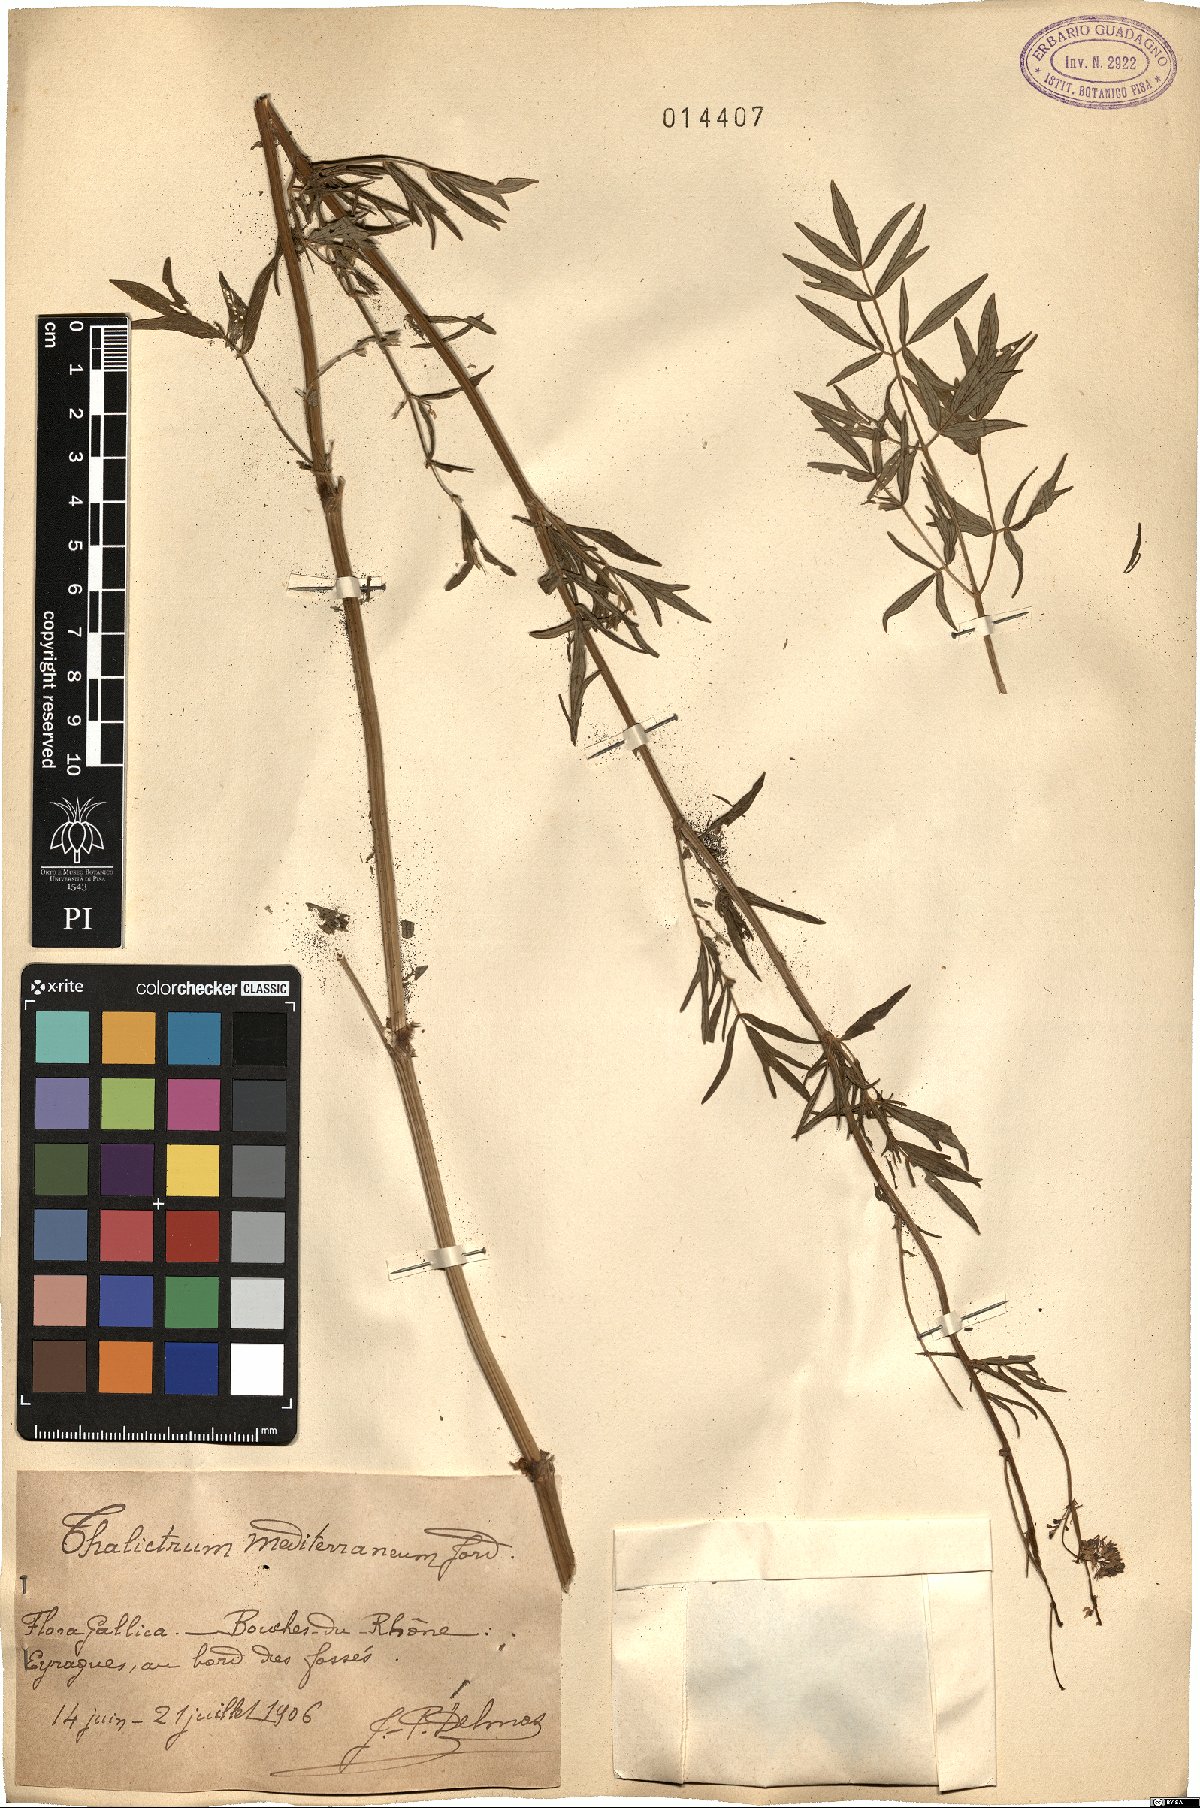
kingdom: Plantae
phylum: Tracheophyta
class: Magnoliopsida
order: Ranunculales
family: Ranunculaceae
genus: Thalictrum
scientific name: Thalictrum flavum
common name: Common meadow-rue
